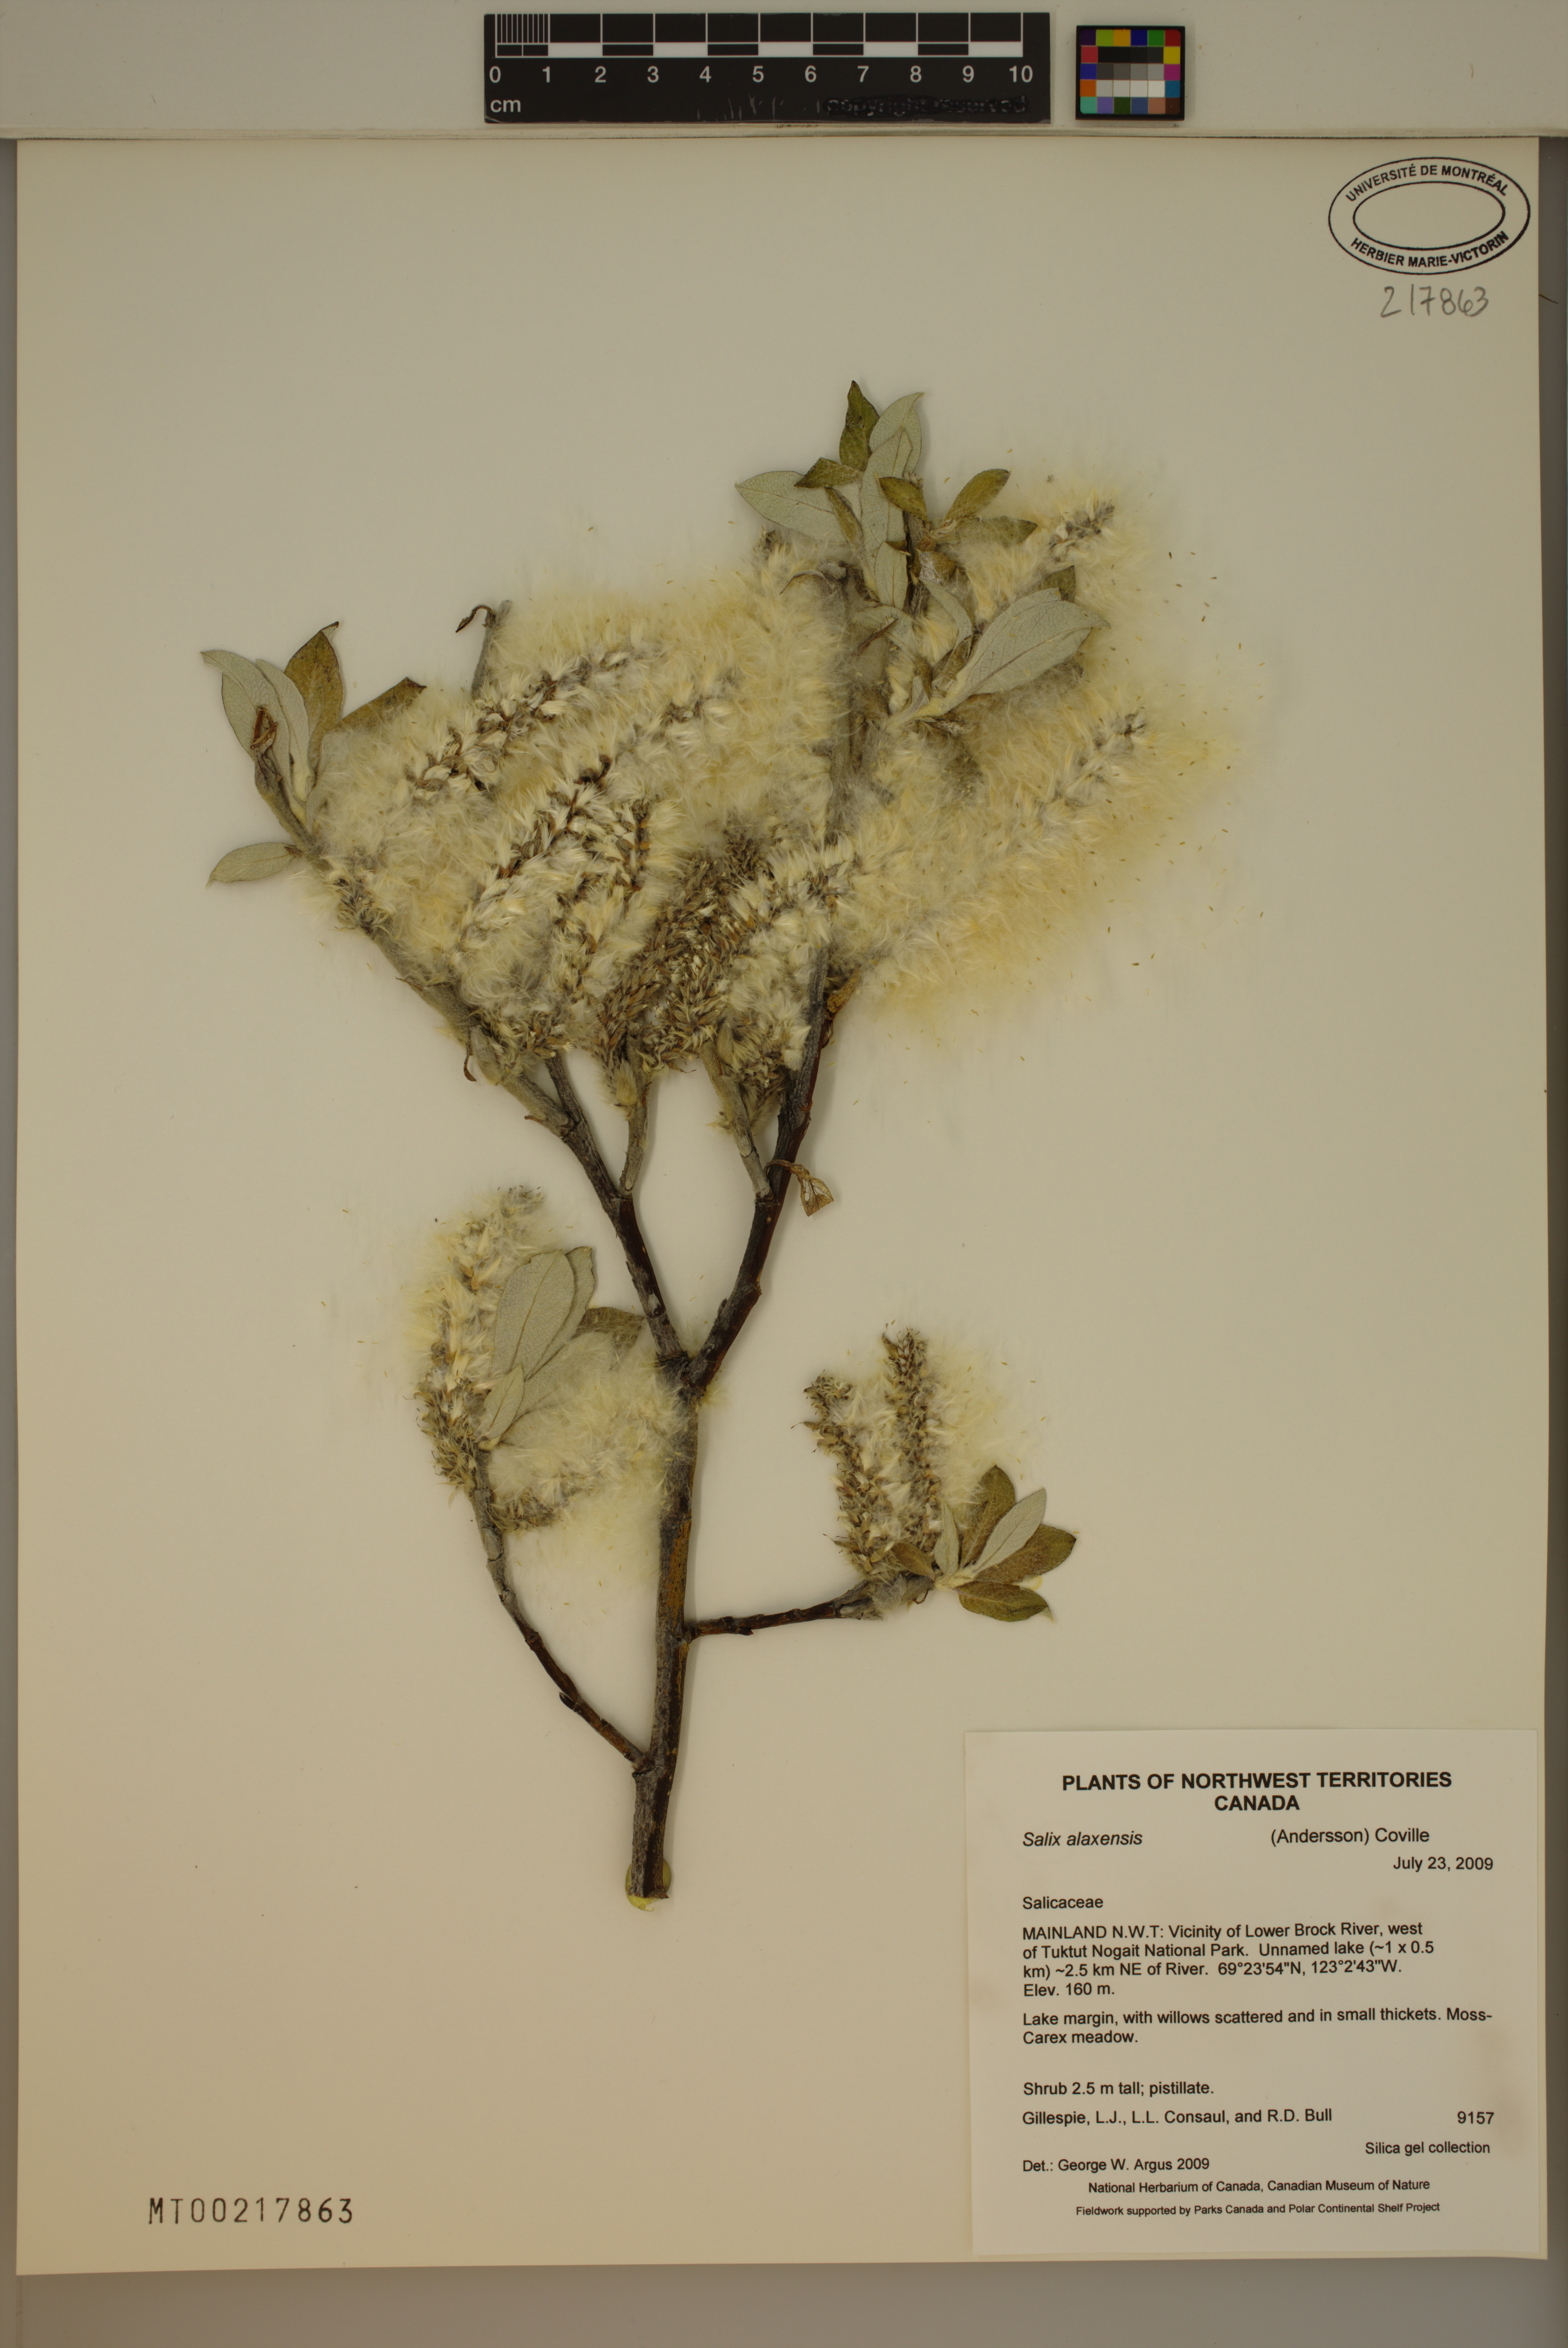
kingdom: Plantae
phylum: Tracheophyta
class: Magnoliopsida
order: Malpighiales
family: Salicaceae
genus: Salix
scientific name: Salix alaxensis
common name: Feltleaf willow
